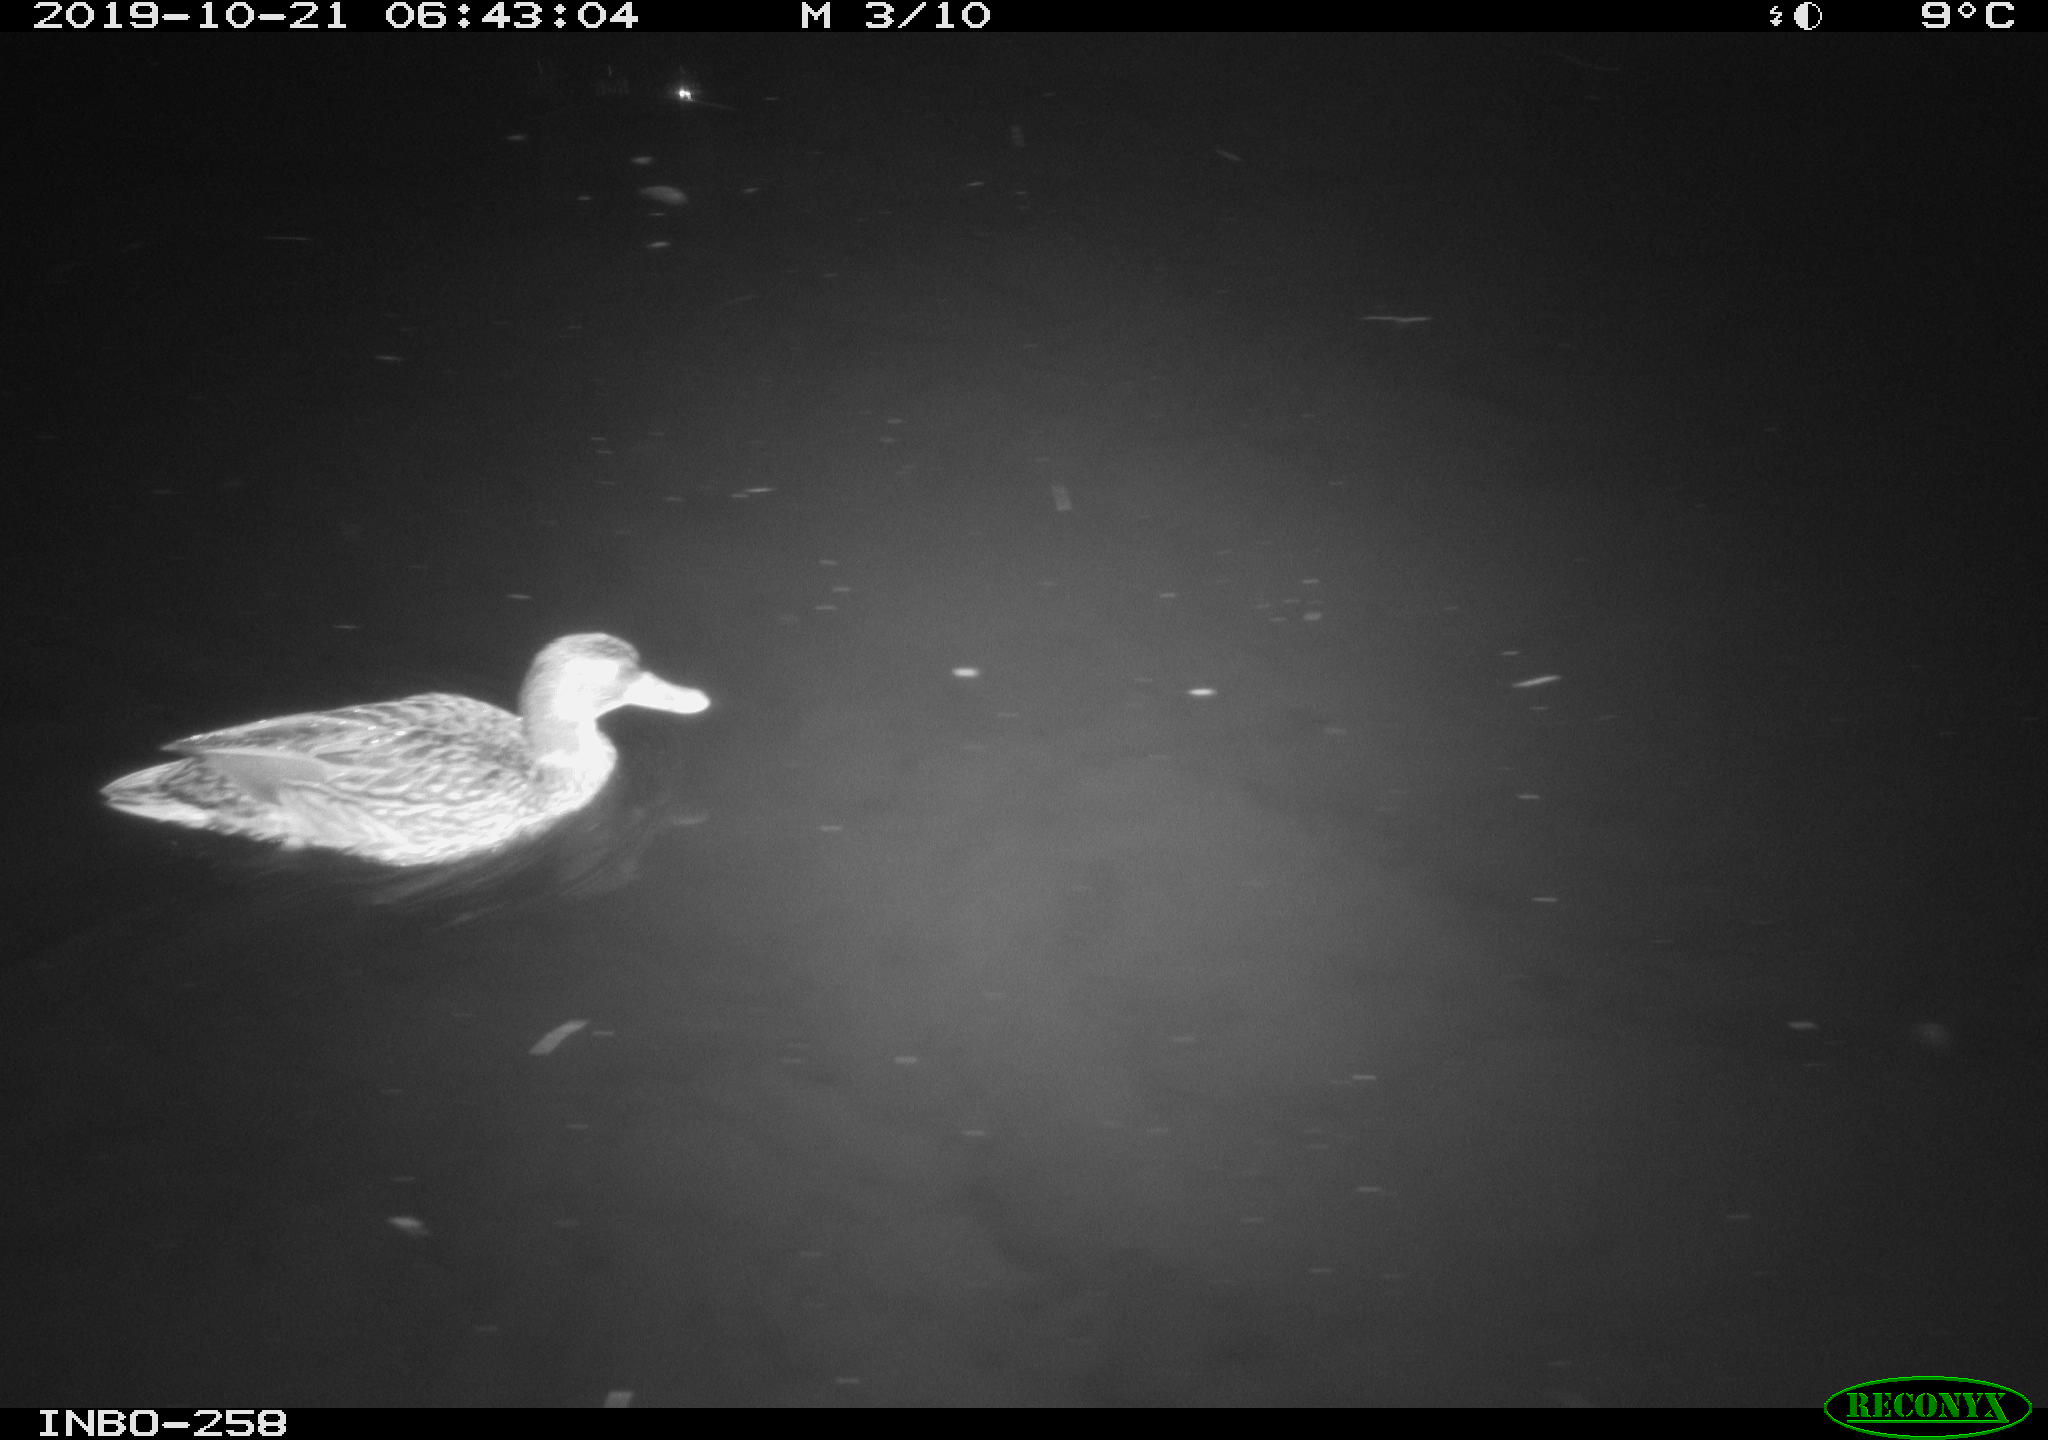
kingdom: Animalia
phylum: Chordata
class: Aves
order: Anseriformes
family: Anatidae
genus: Anas
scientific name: Anas platyrhynchos
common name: Mallard
